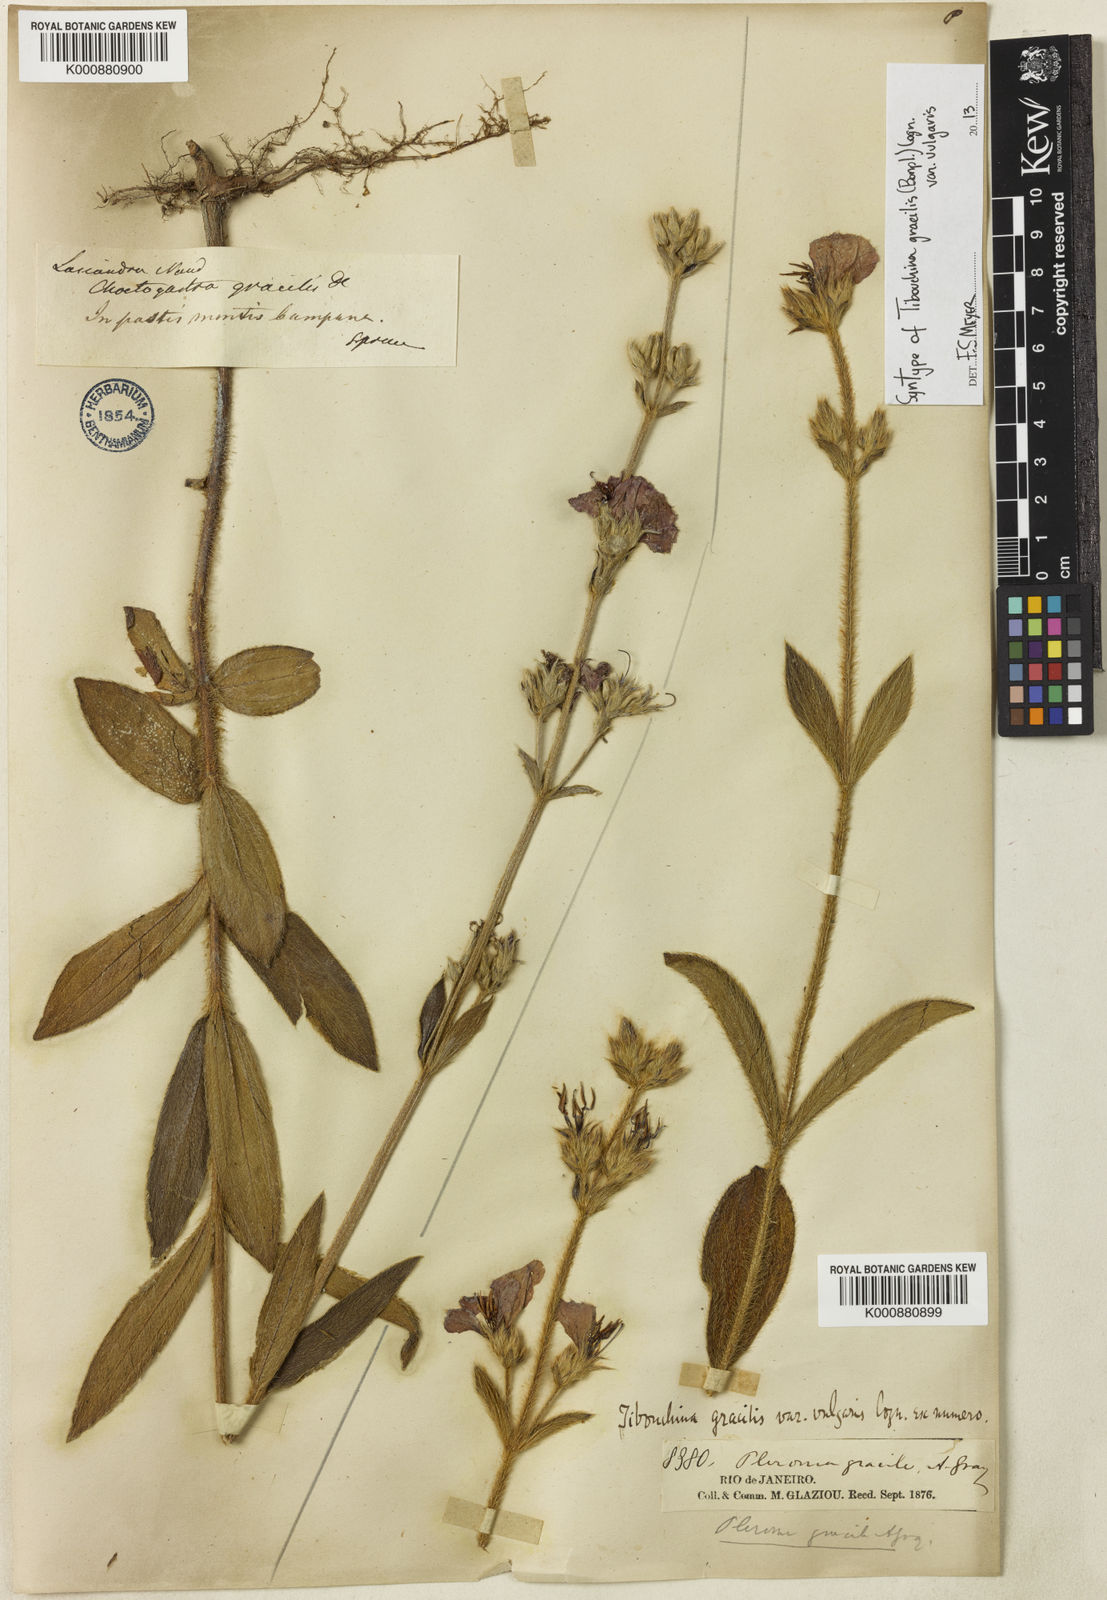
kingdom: Plantae
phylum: Tracheophyta
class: Magnoliopsida
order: Myrtales
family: Melastomataceae
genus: Chaetogastra
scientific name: Chaetogastra gracilis
